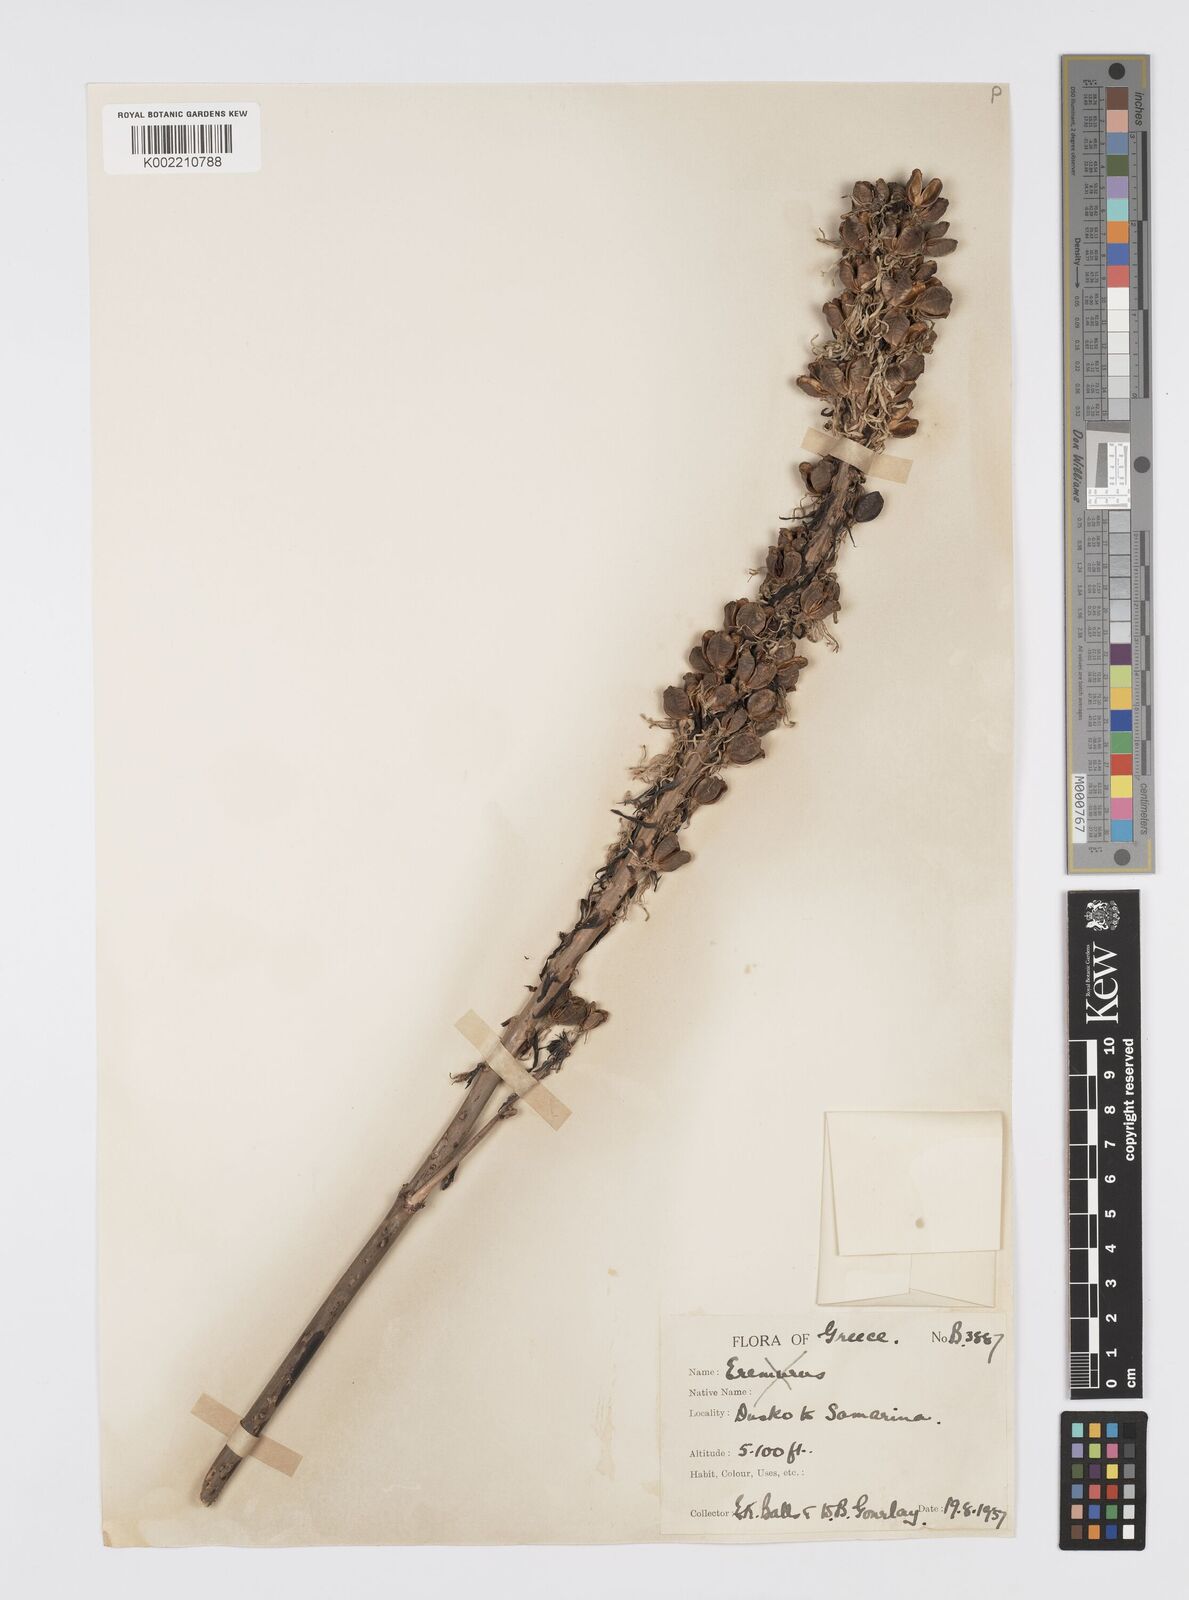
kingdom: Plantae
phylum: Tracheophyta
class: Liliopsida
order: Asparagales
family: Asphodelaceae
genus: Asphodelus
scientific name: Asphodelus cerasifer
